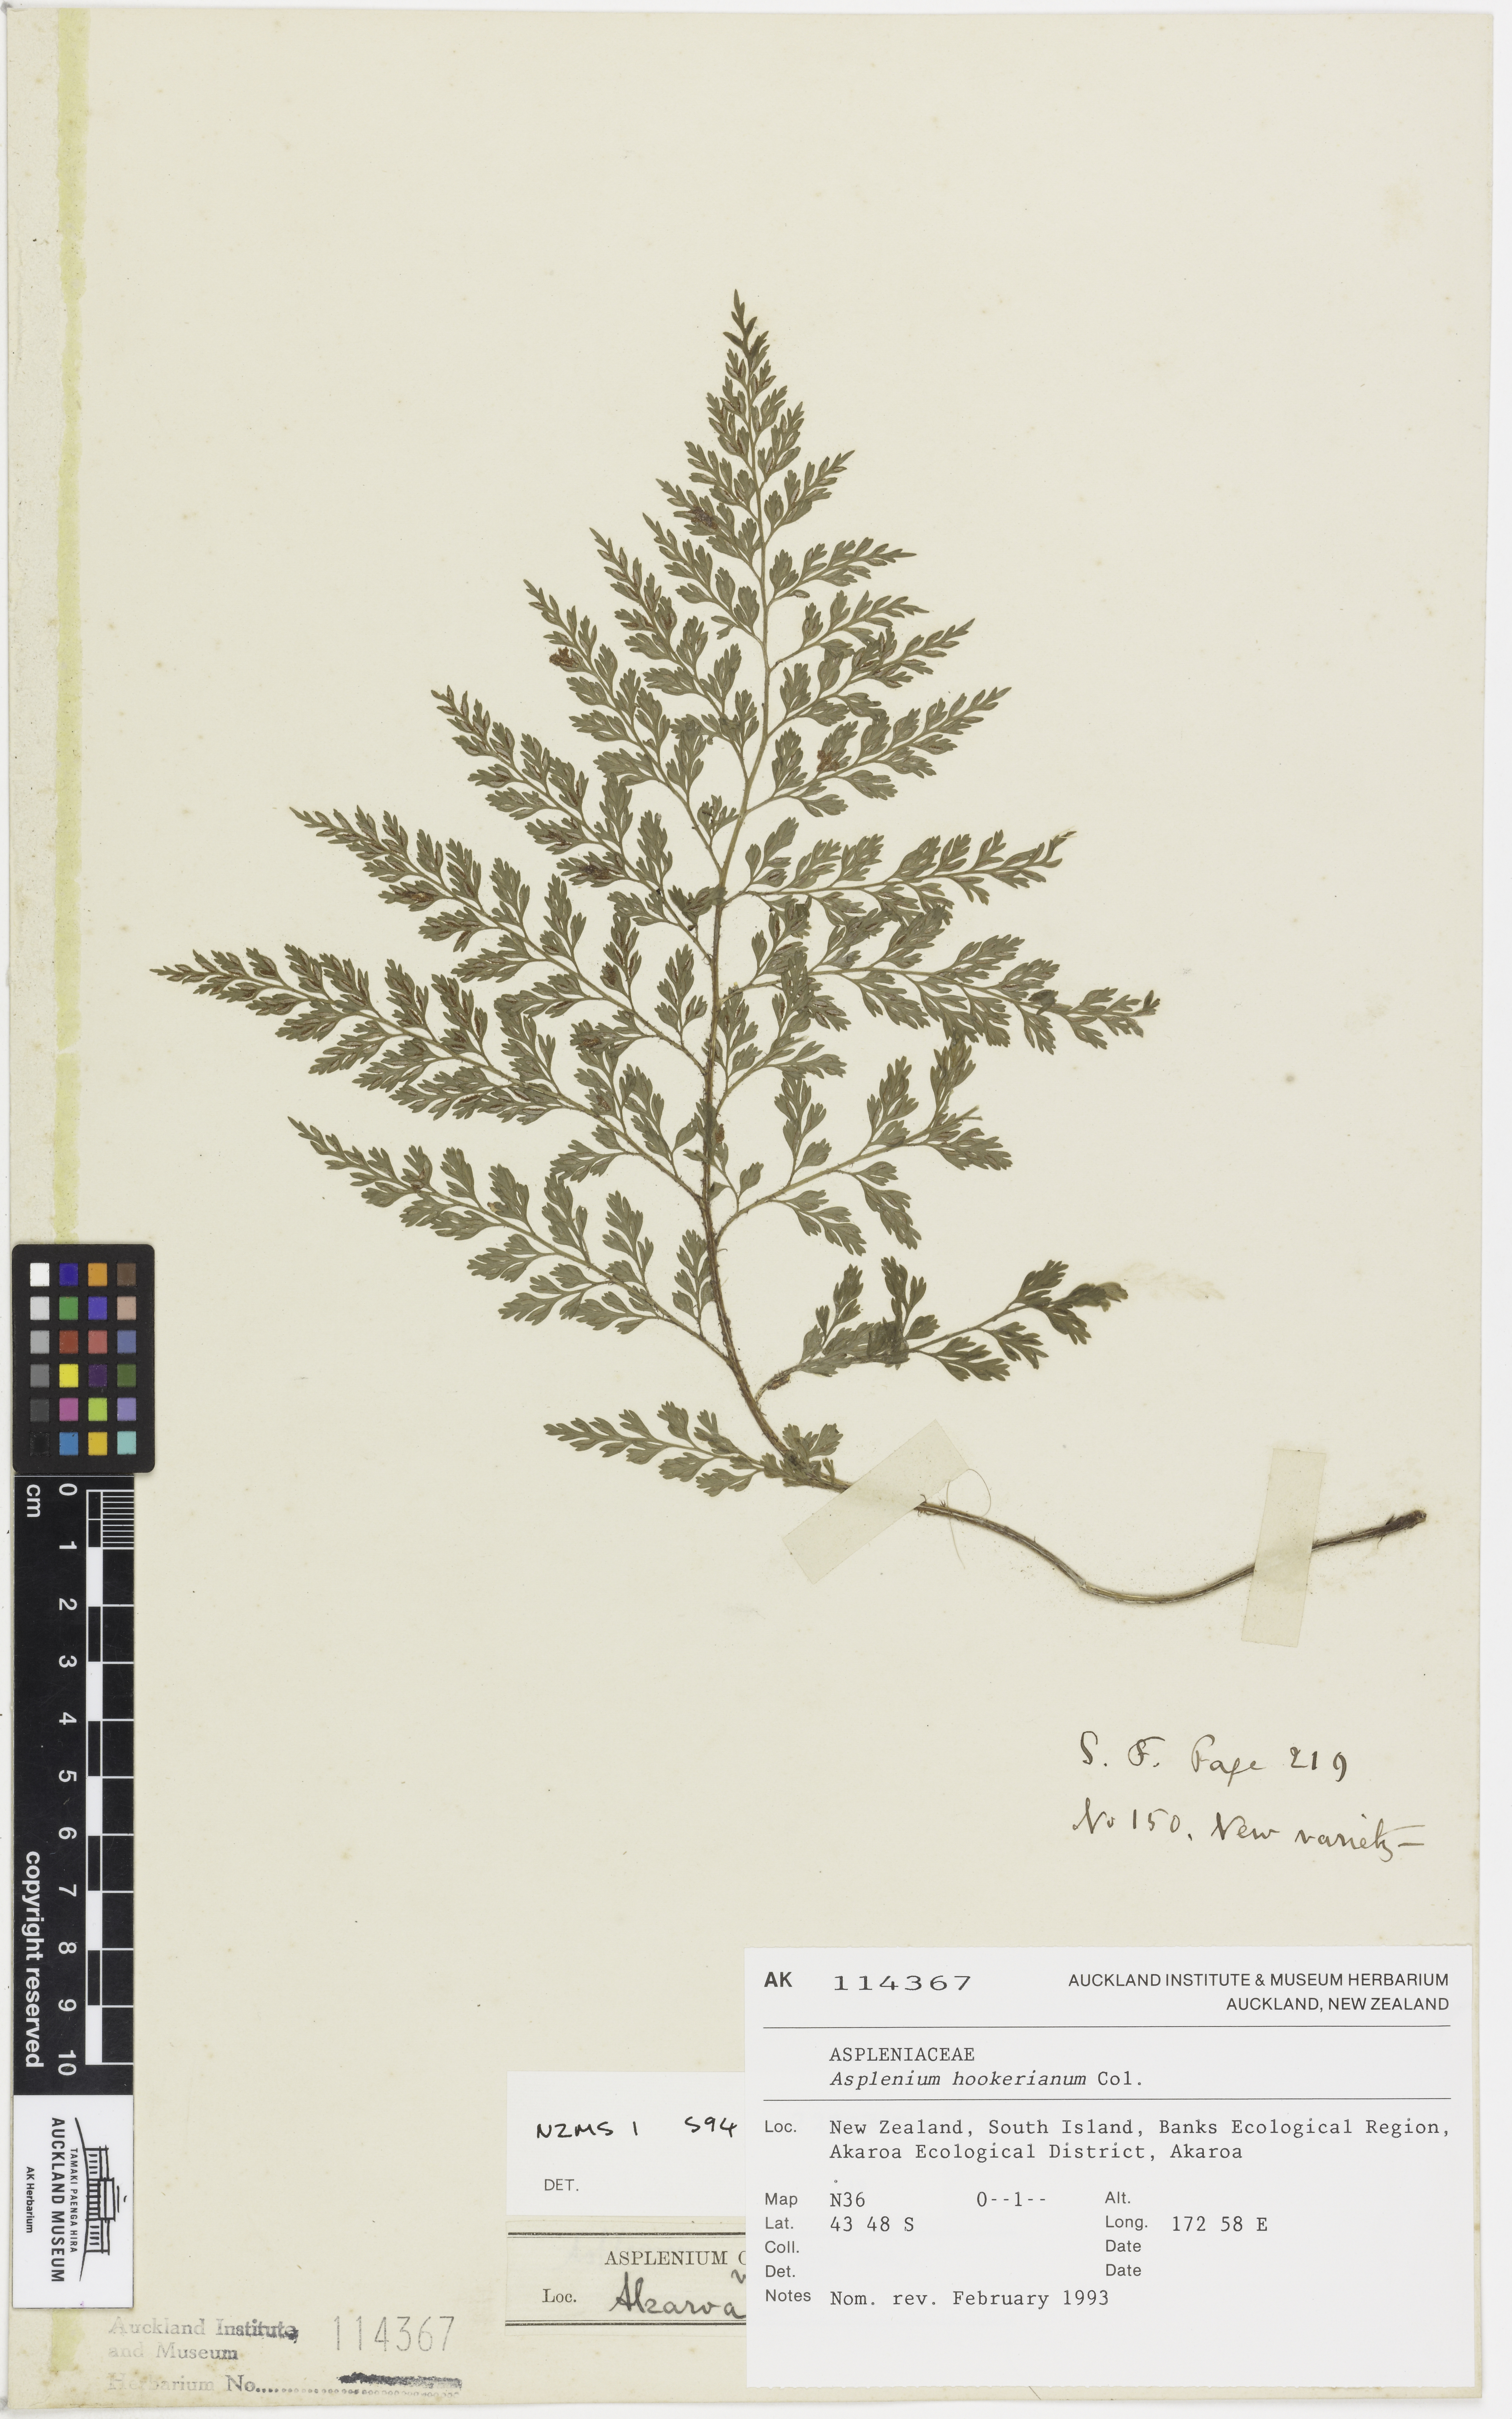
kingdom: Plantae
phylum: Tracheophyta
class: Polypodiopsida
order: Polypodiales
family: Aspleniaceae
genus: Asplenium
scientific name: Asplenium hookerianum
